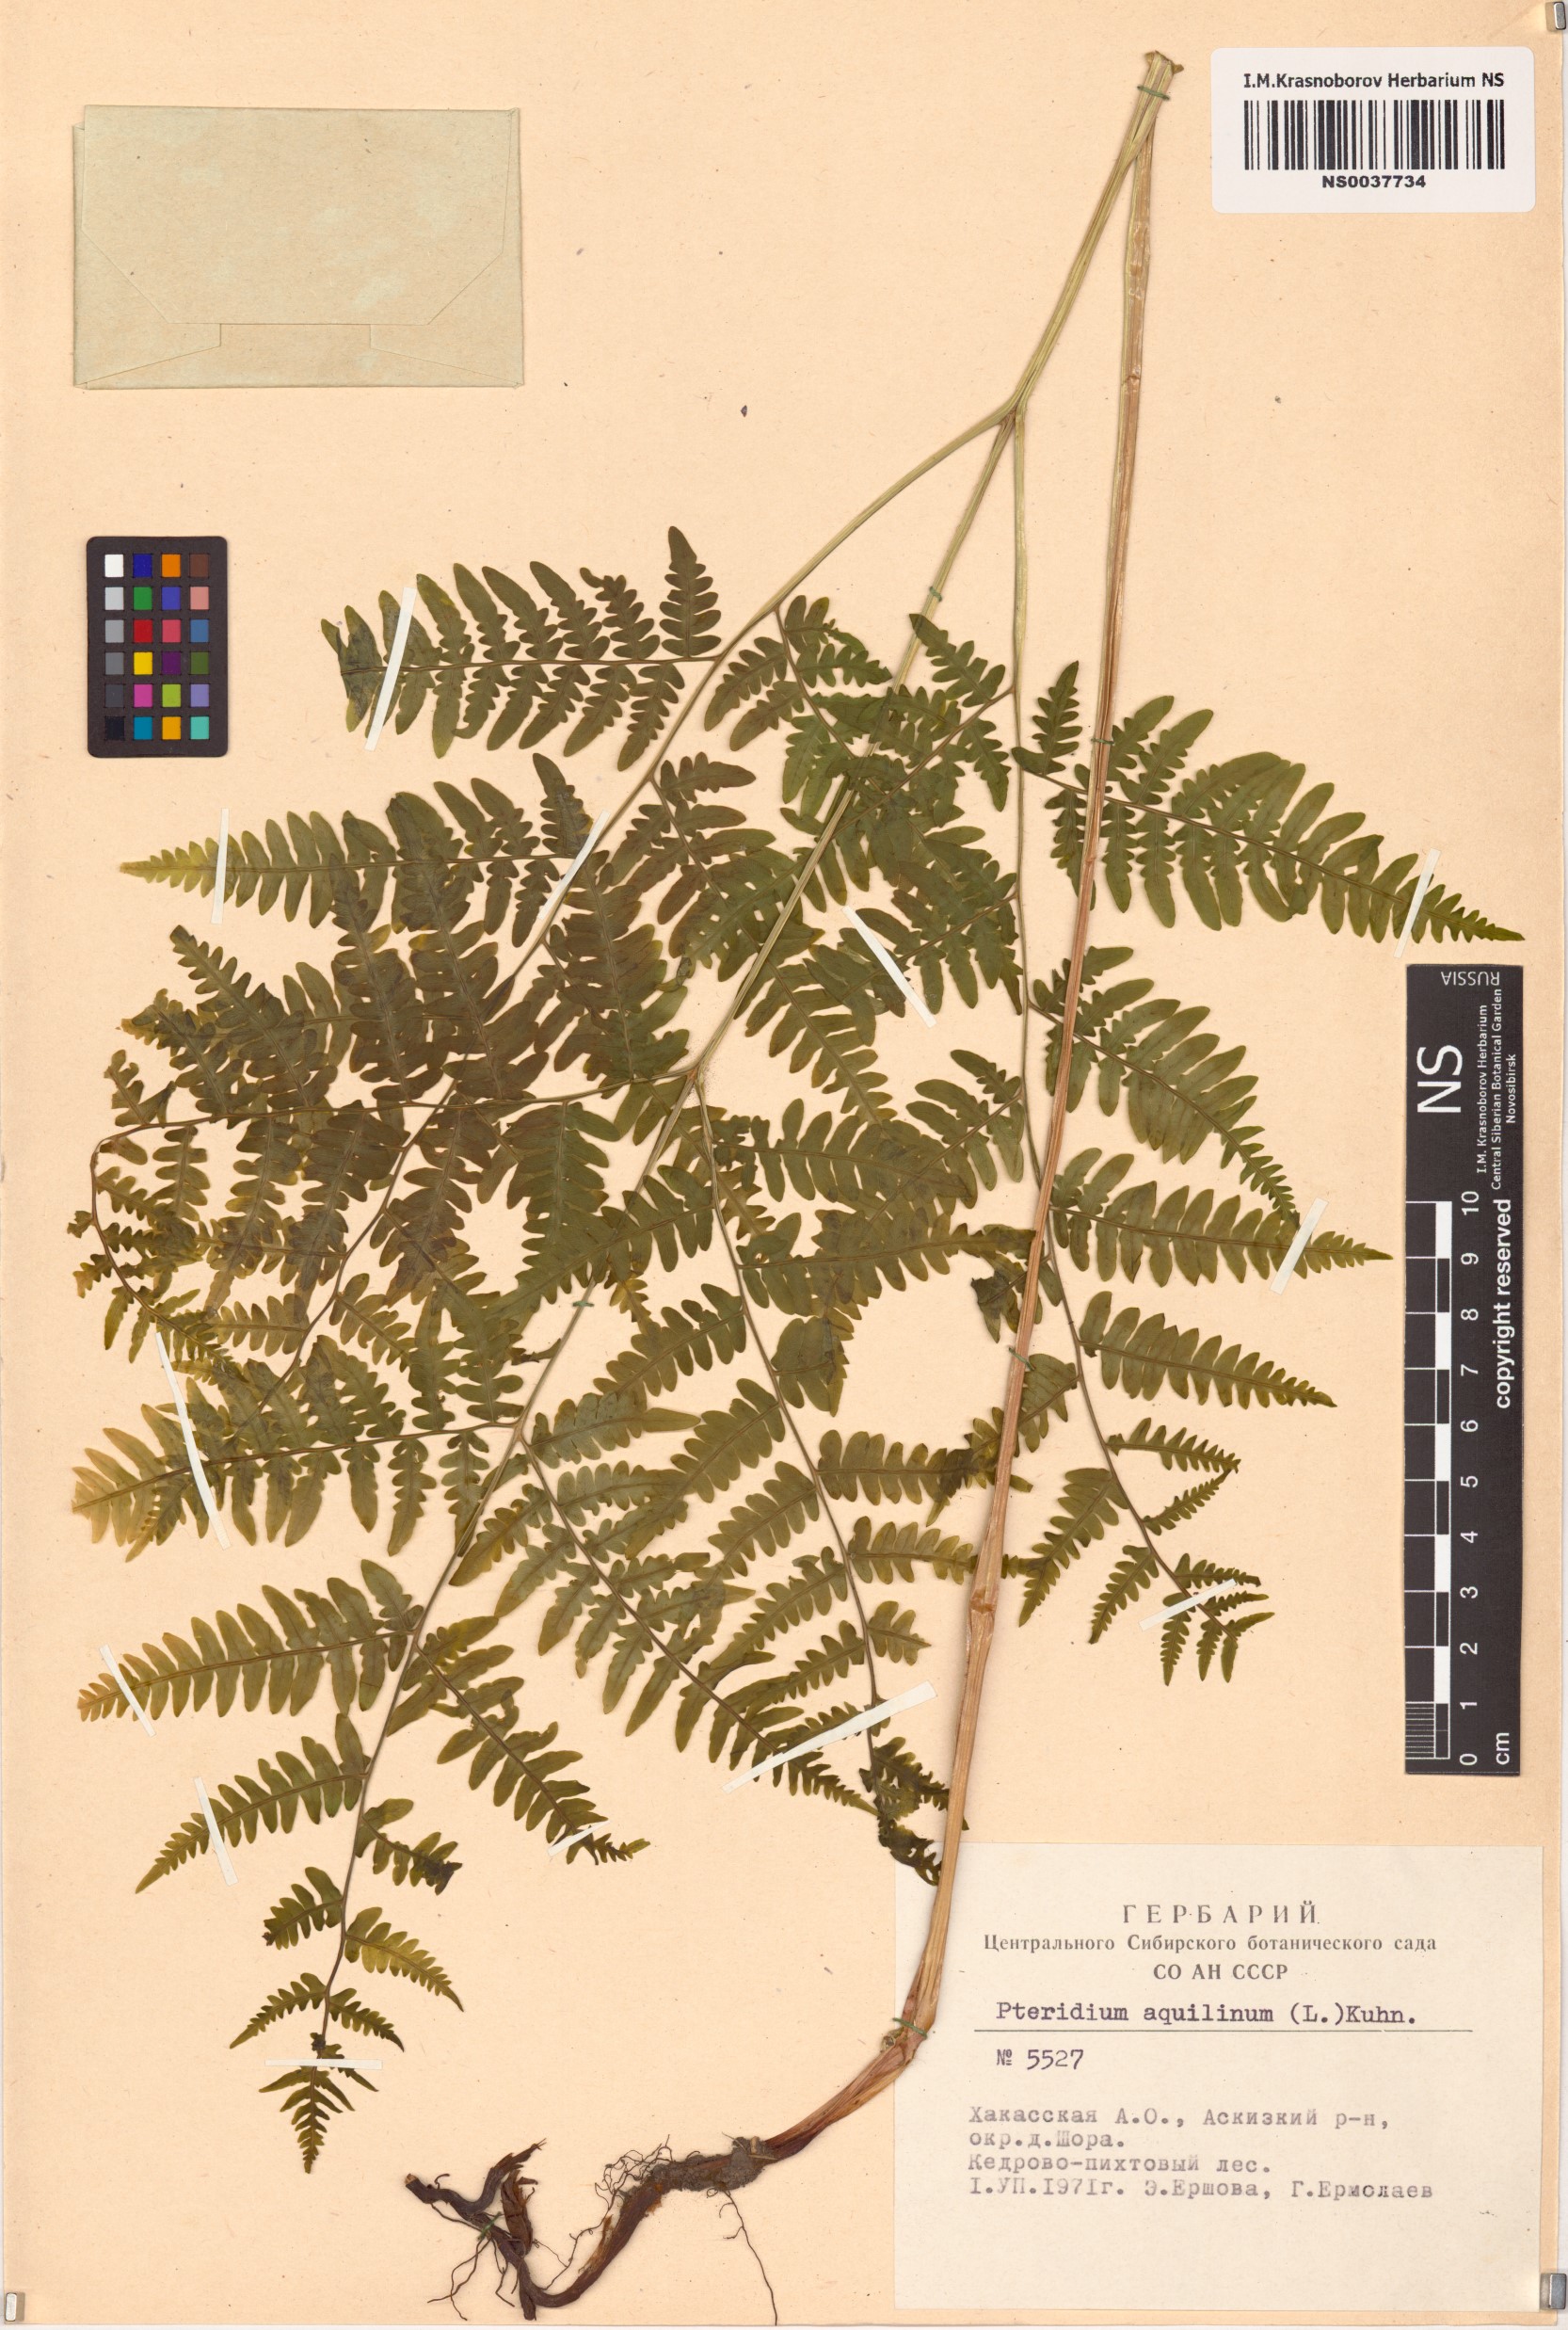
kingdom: Plantae
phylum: Tracheophyta
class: Polypodiopsida
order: Polypodiales
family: Dennstaedtiaceae
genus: Pteridium
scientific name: Pteridium aquilinum
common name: Bracken
